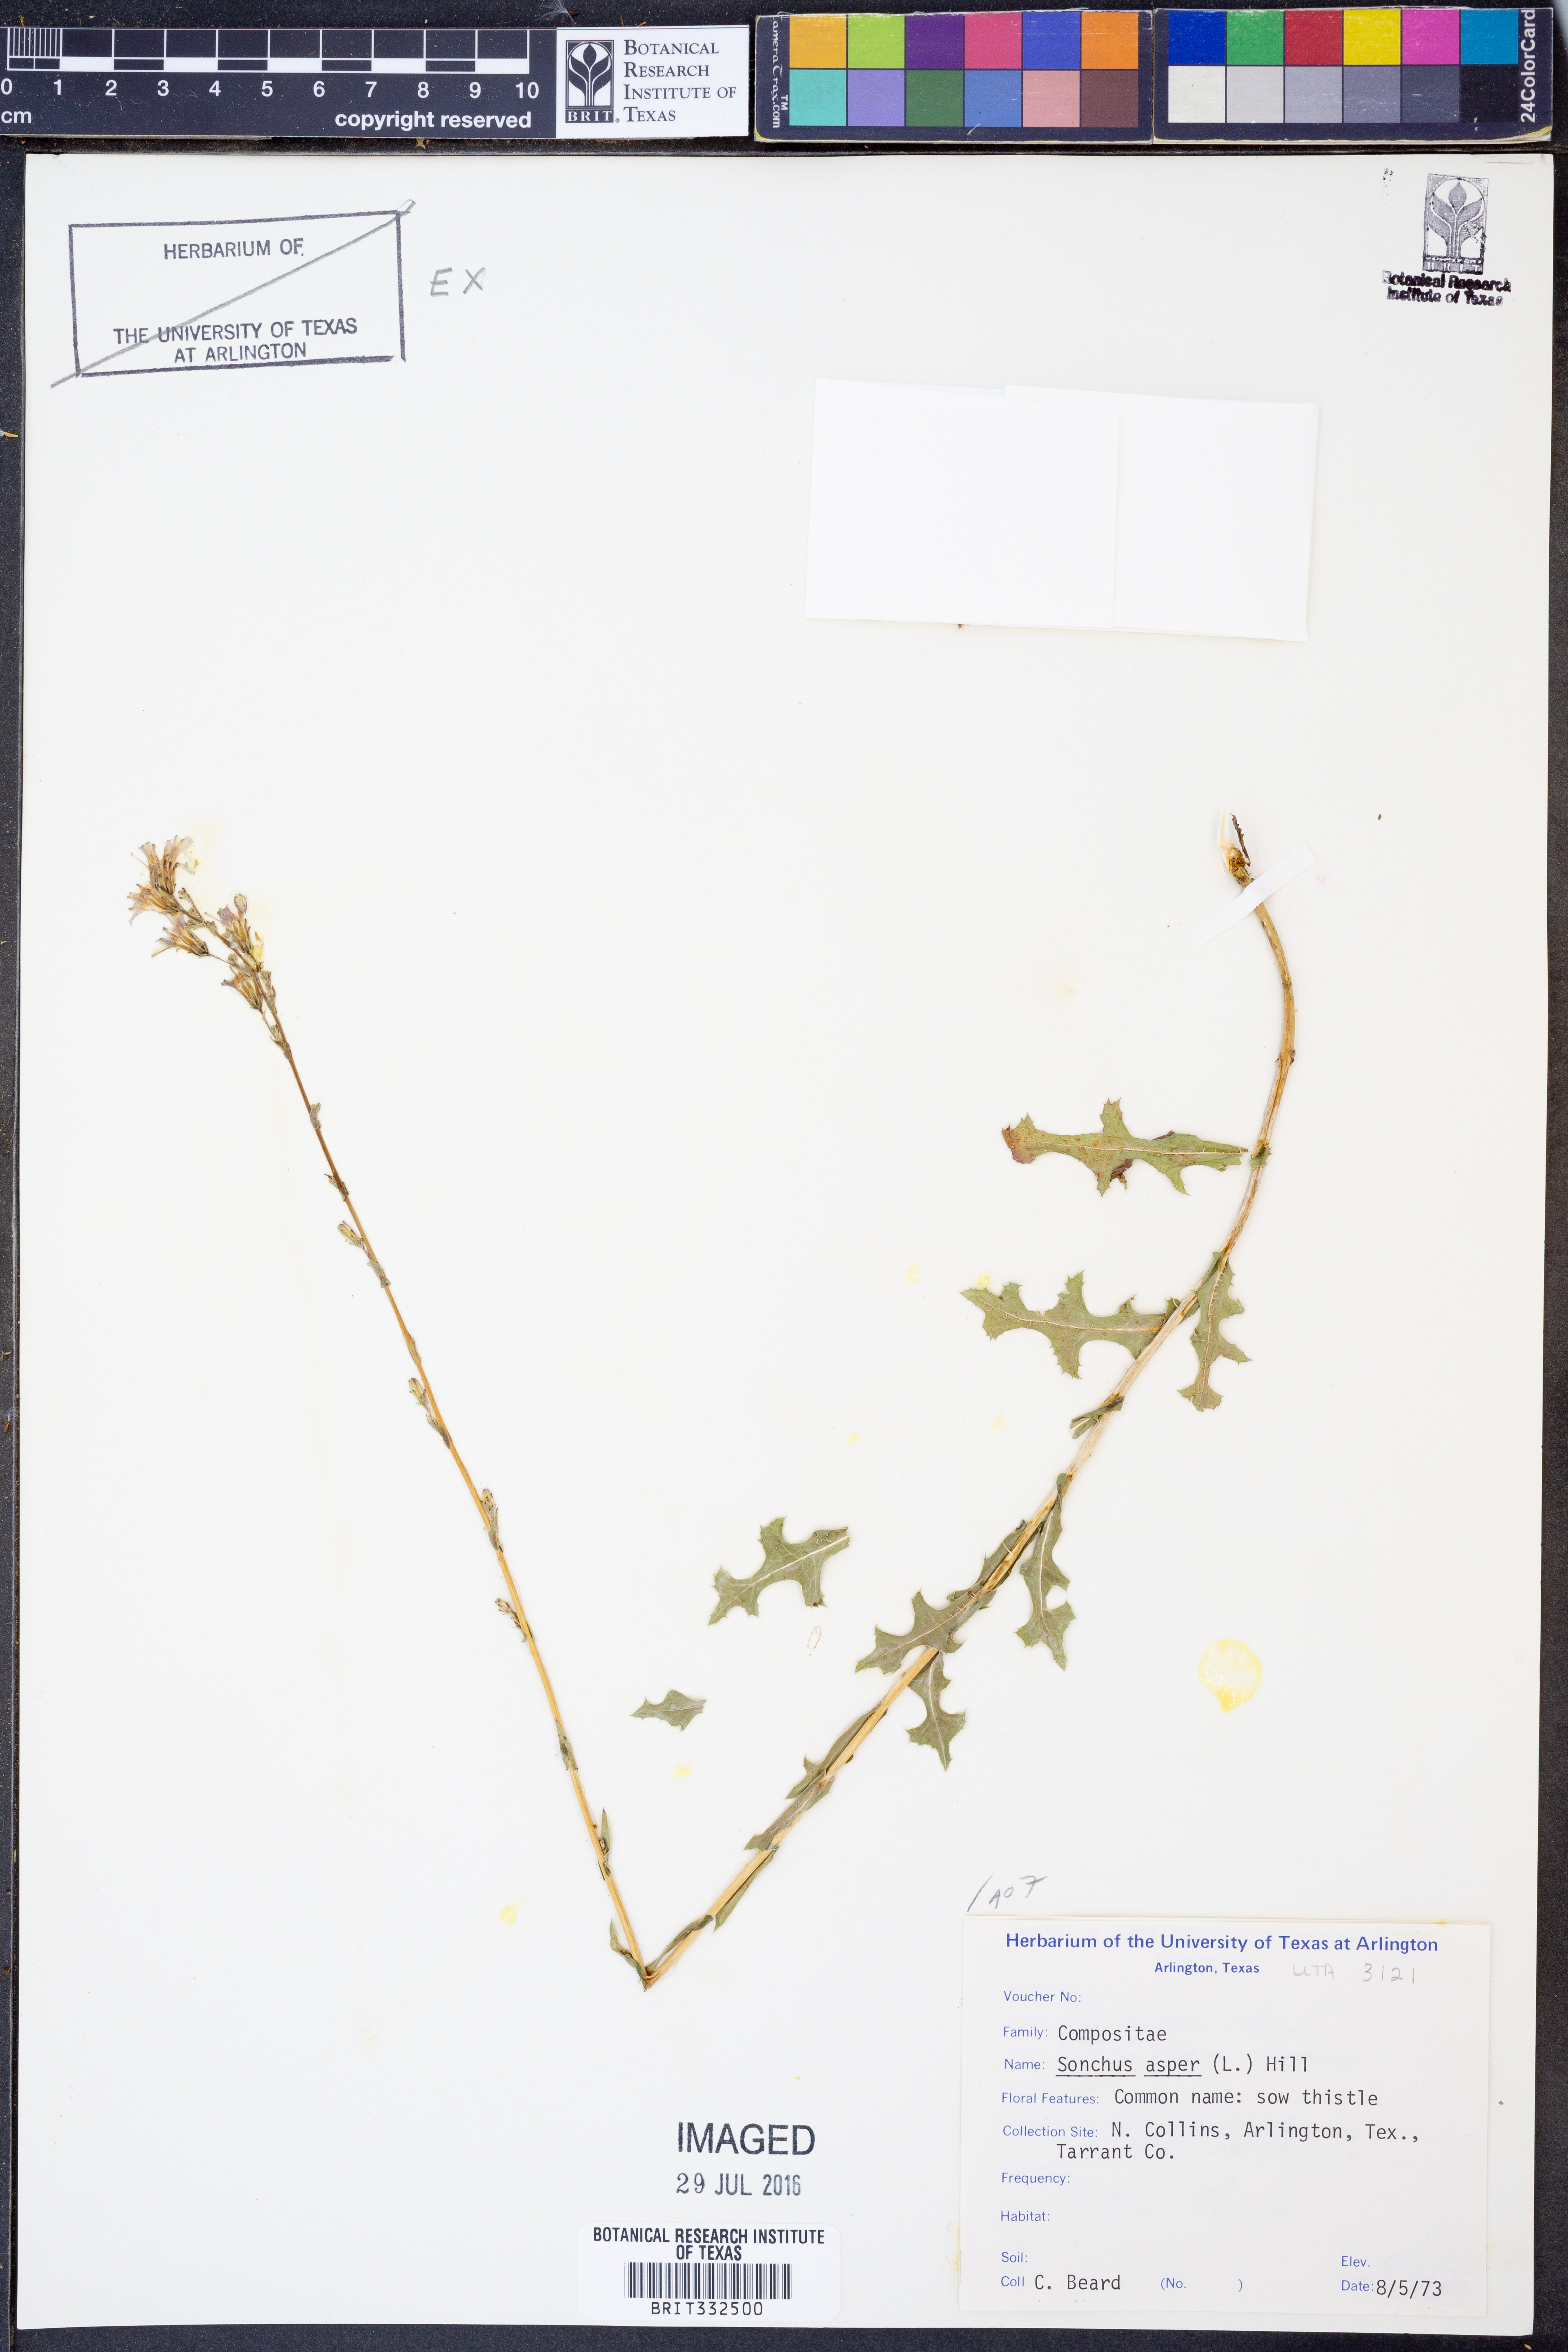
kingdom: Plantae
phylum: Tracheophyta
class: Magnoliopsida
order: Asterales
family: Asteraceae
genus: Sonchus
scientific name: Sonchus asper
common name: Prickly sow-thistle
